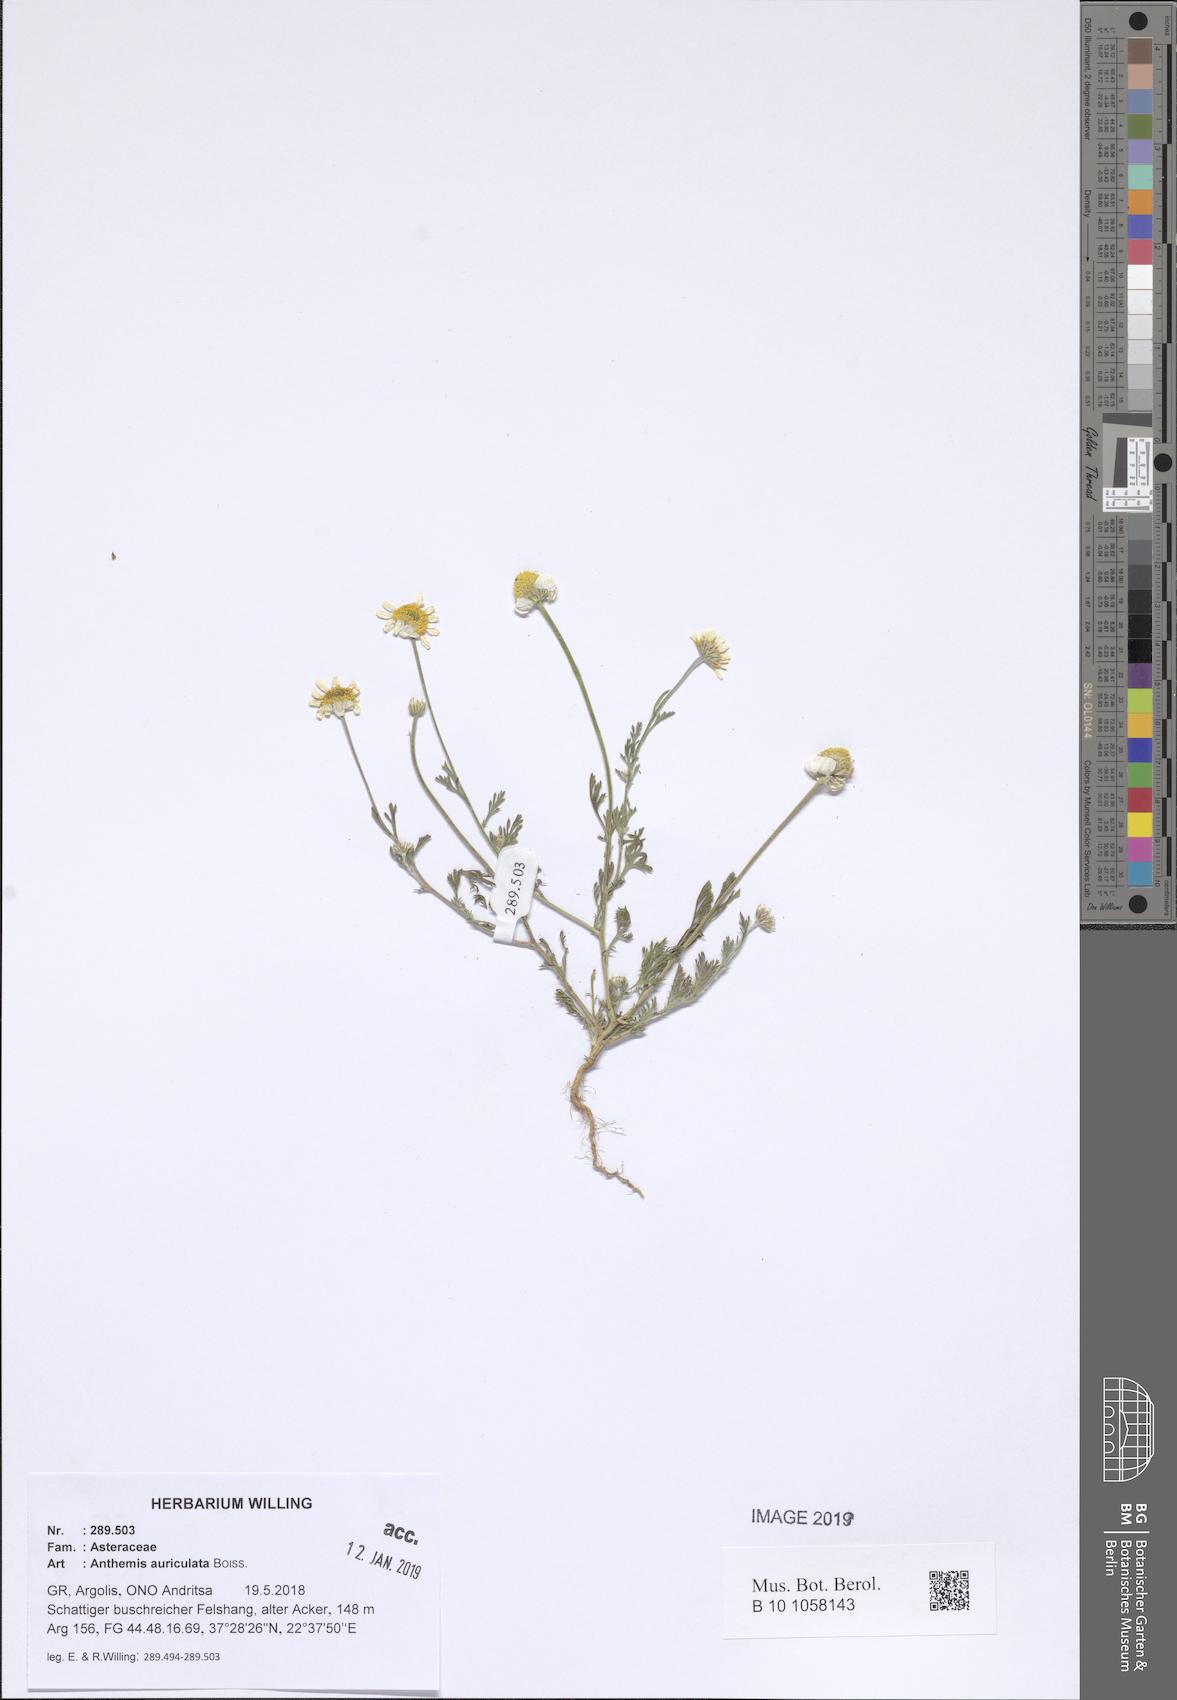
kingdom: Plantae
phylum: Tracheophyta
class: Magnoliopsida
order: Asterales
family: Asteraceae
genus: Anthemis
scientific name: Anthemis auriculata
